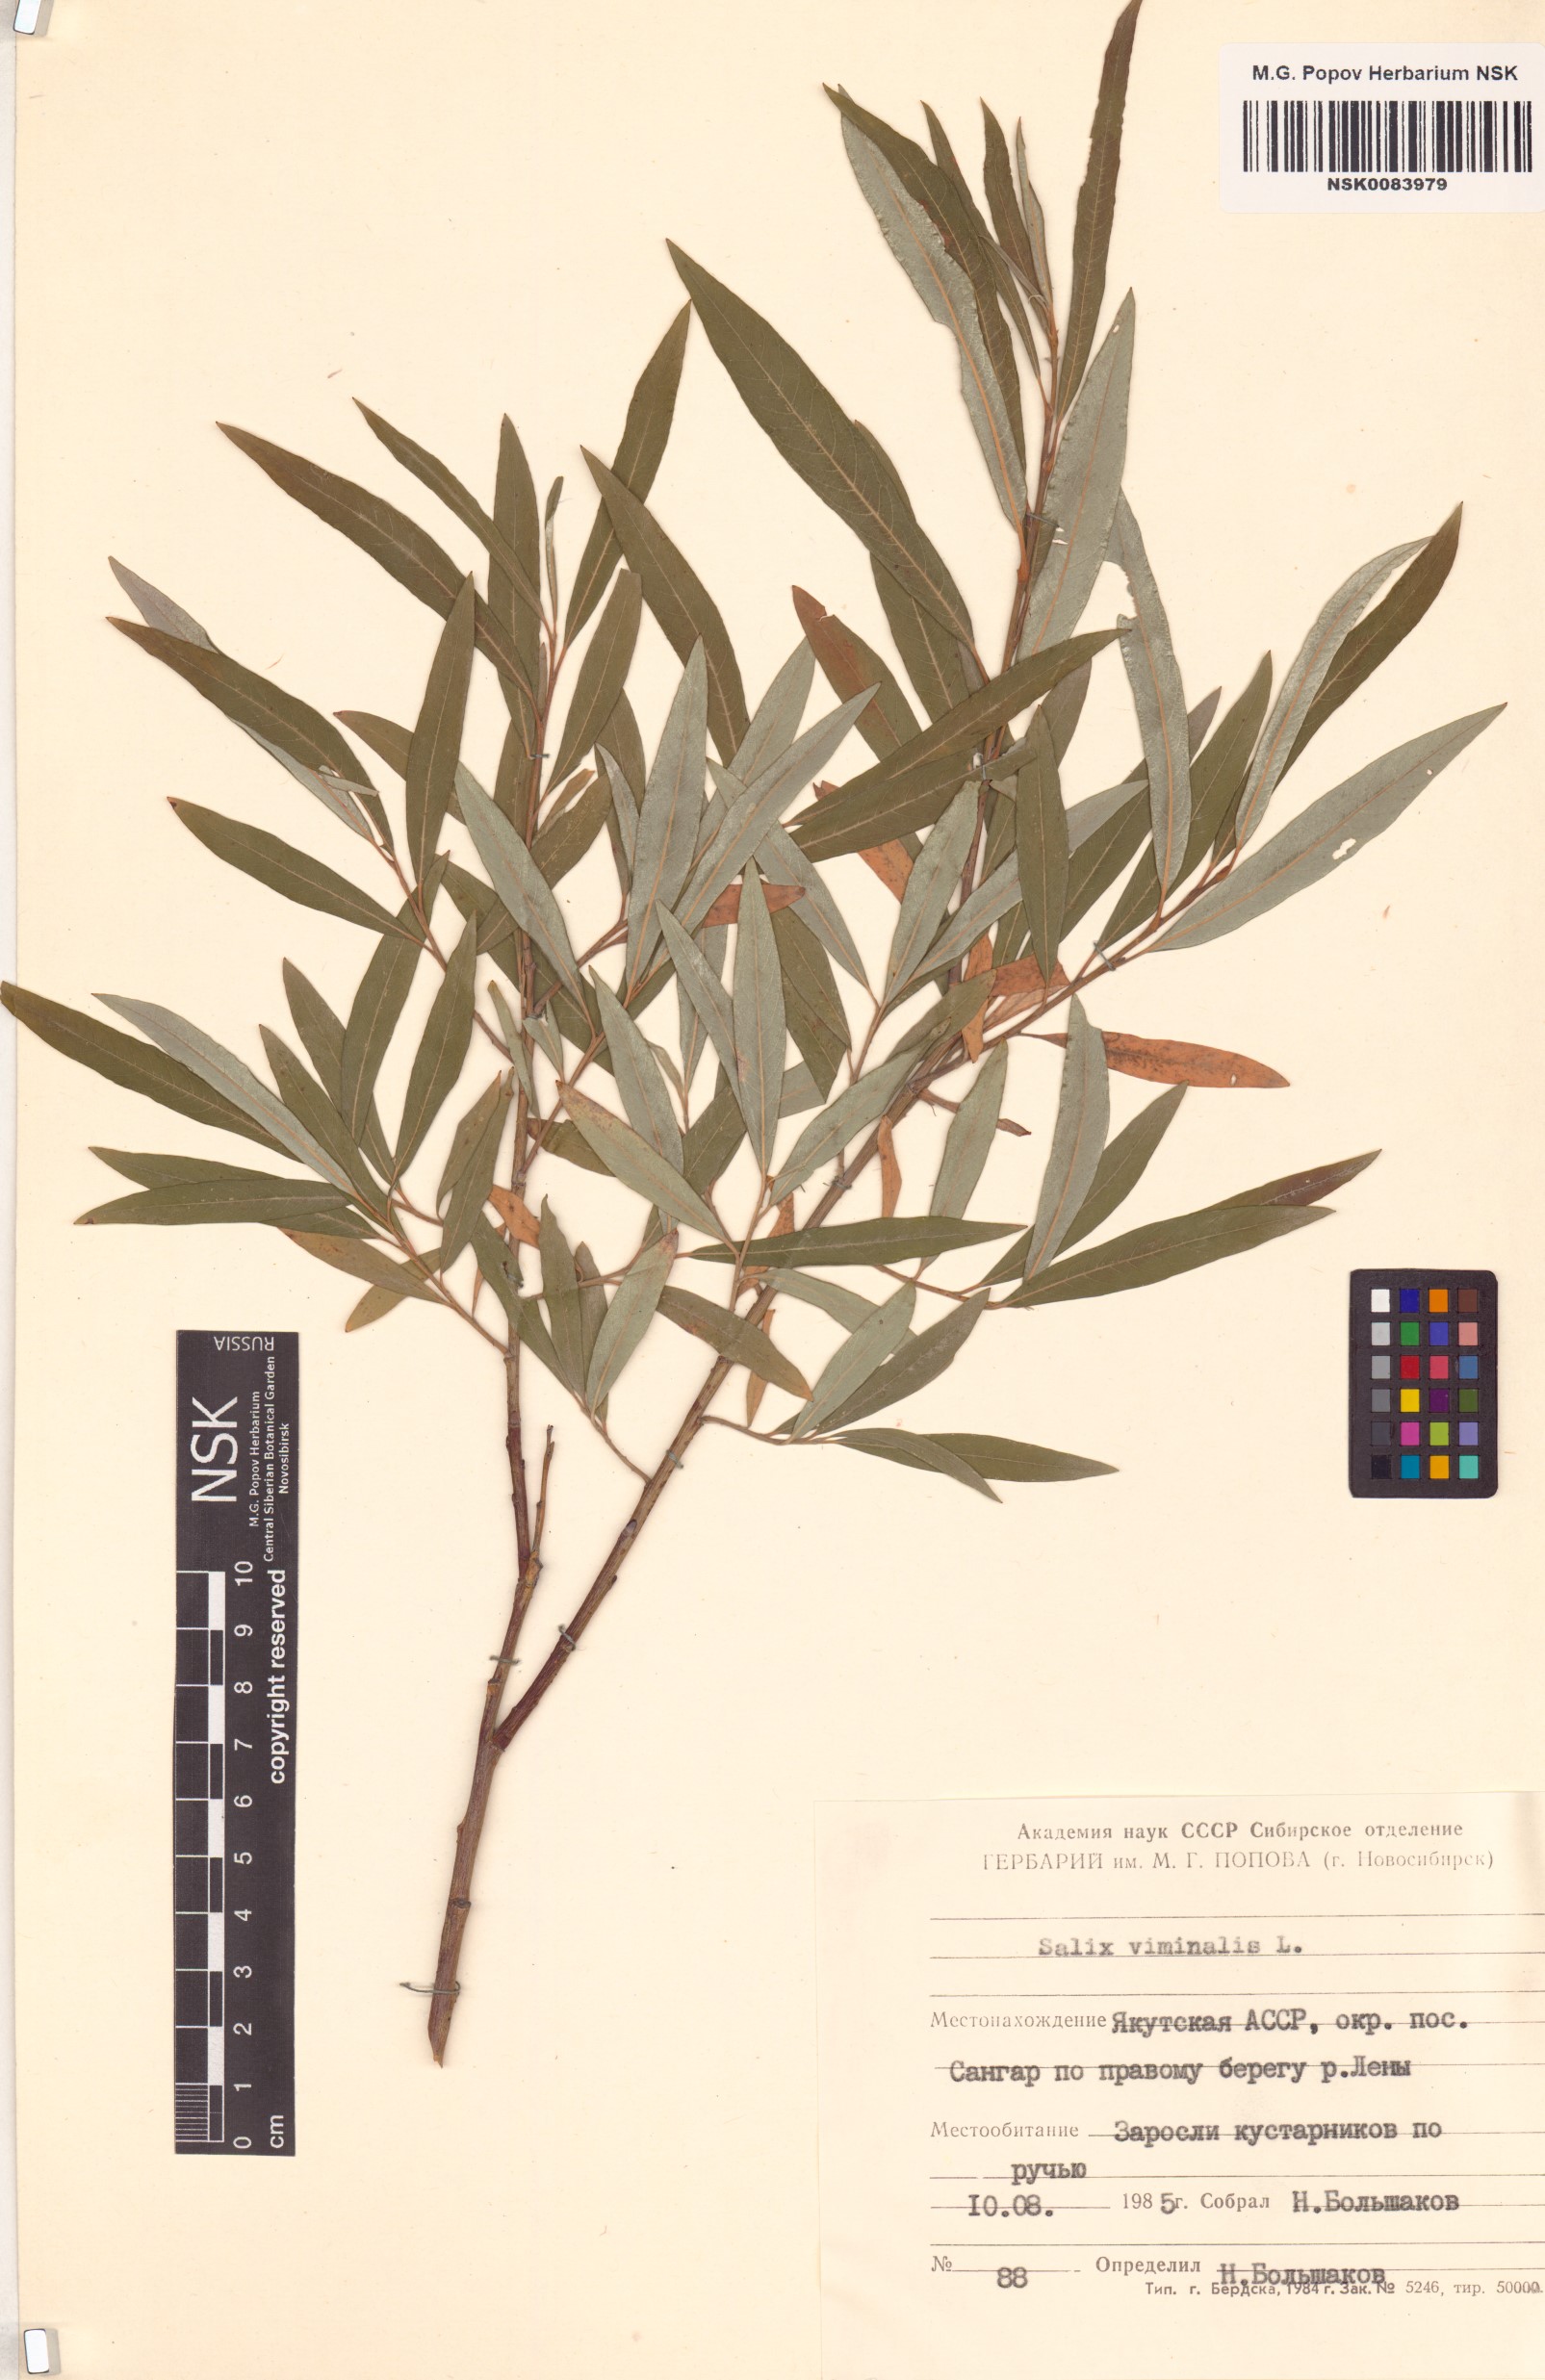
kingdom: Plantae
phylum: Tracheophyta
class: Magnoliopsida
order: Malpighiales
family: Salicaceae
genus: Salix
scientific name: Salix viminalis
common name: Osier
